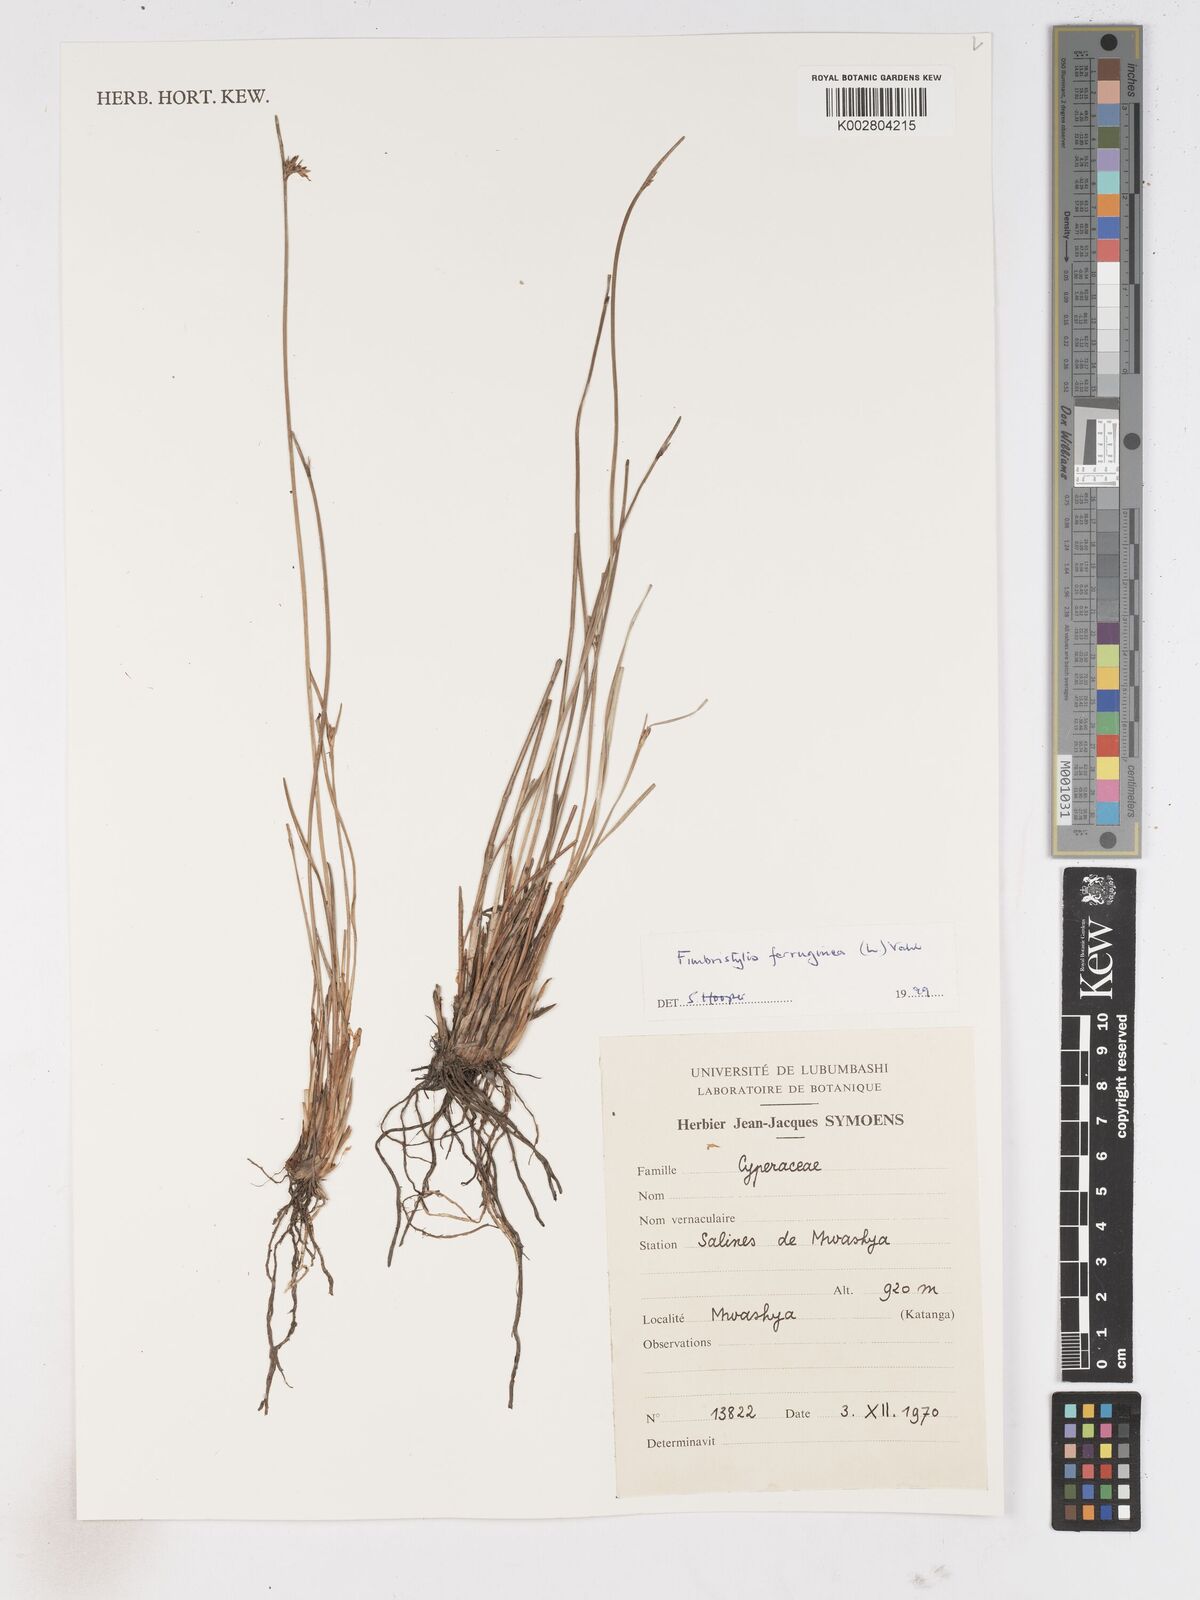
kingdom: Plantae
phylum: Tracheophyta
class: Liliopsida
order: Poales
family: Cyperaceae
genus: Fimbristylis
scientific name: Fimbristylis ferruginea
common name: West indian fimbry
